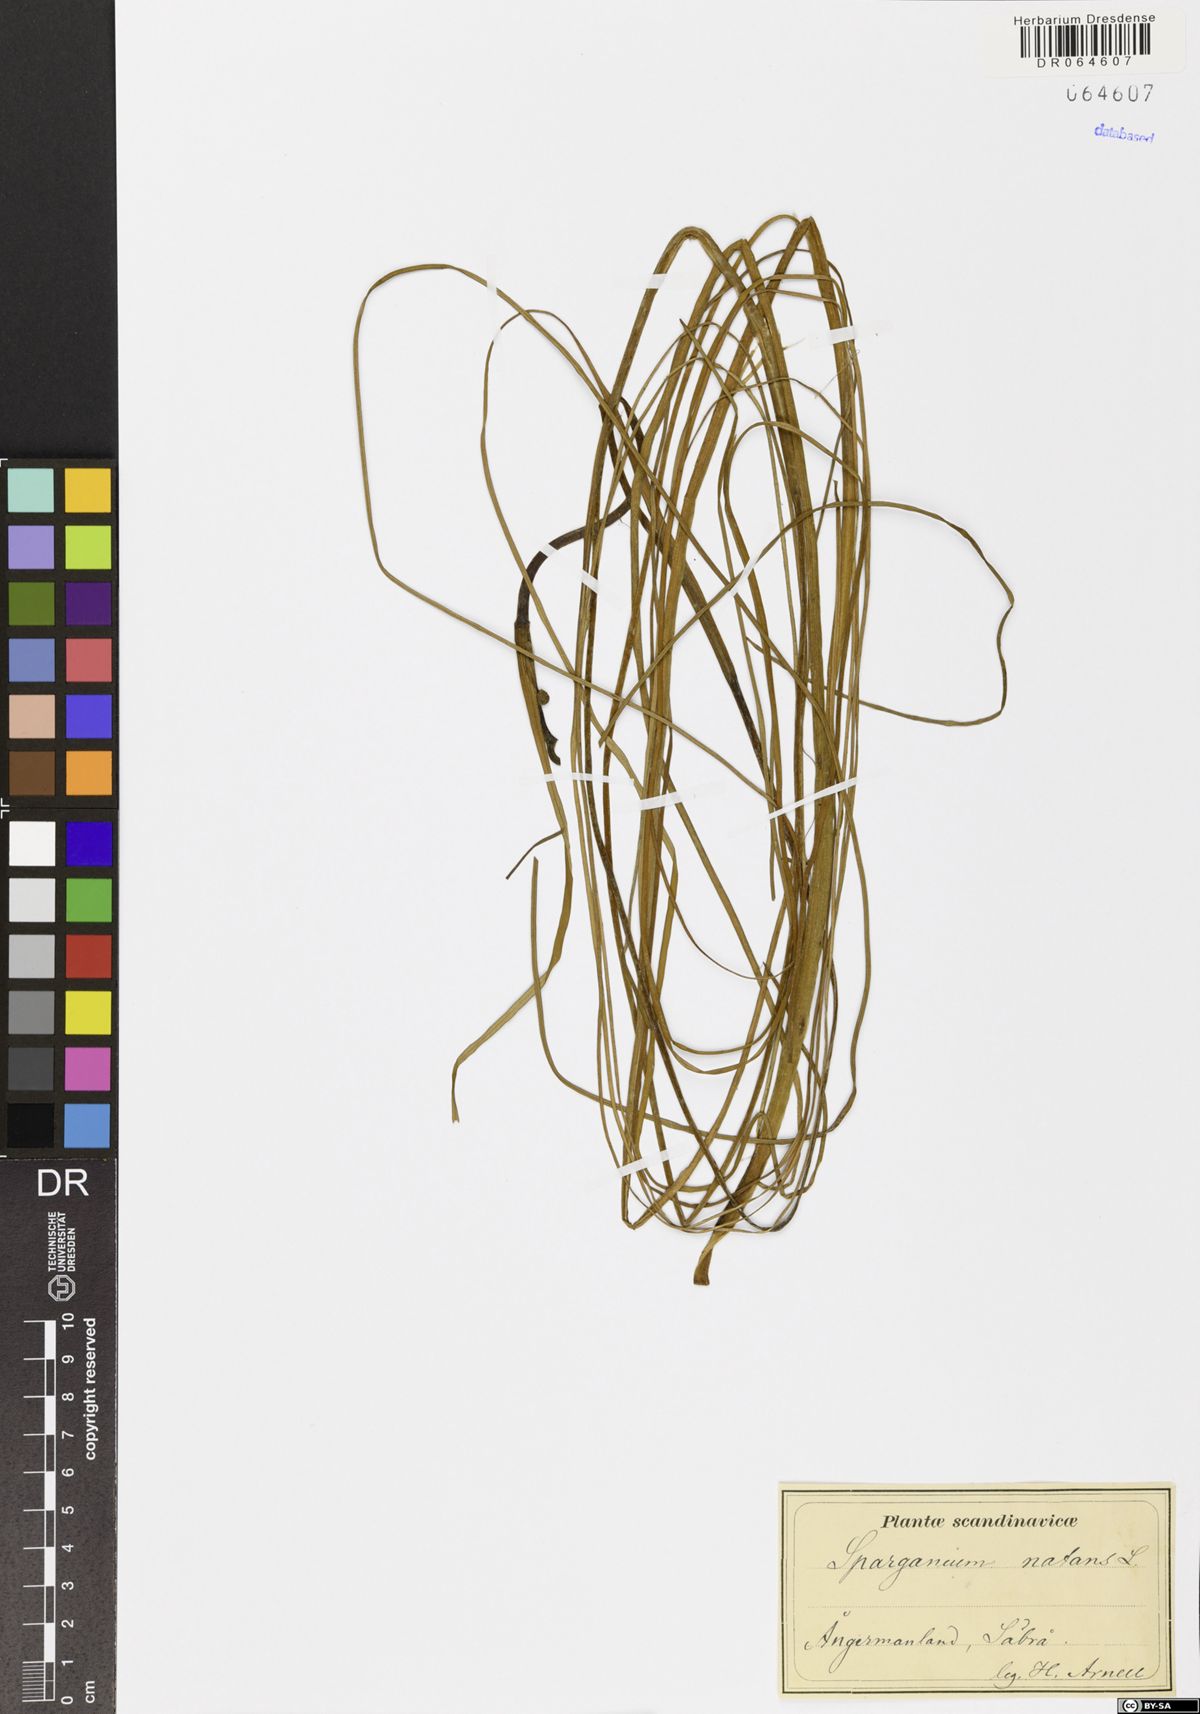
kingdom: Plantae
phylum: Tracheophyta
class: Liliopsida
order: Poales
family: Typhaceae
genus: Sparganium
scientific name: Sparganium natans
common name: Least bur-reed
